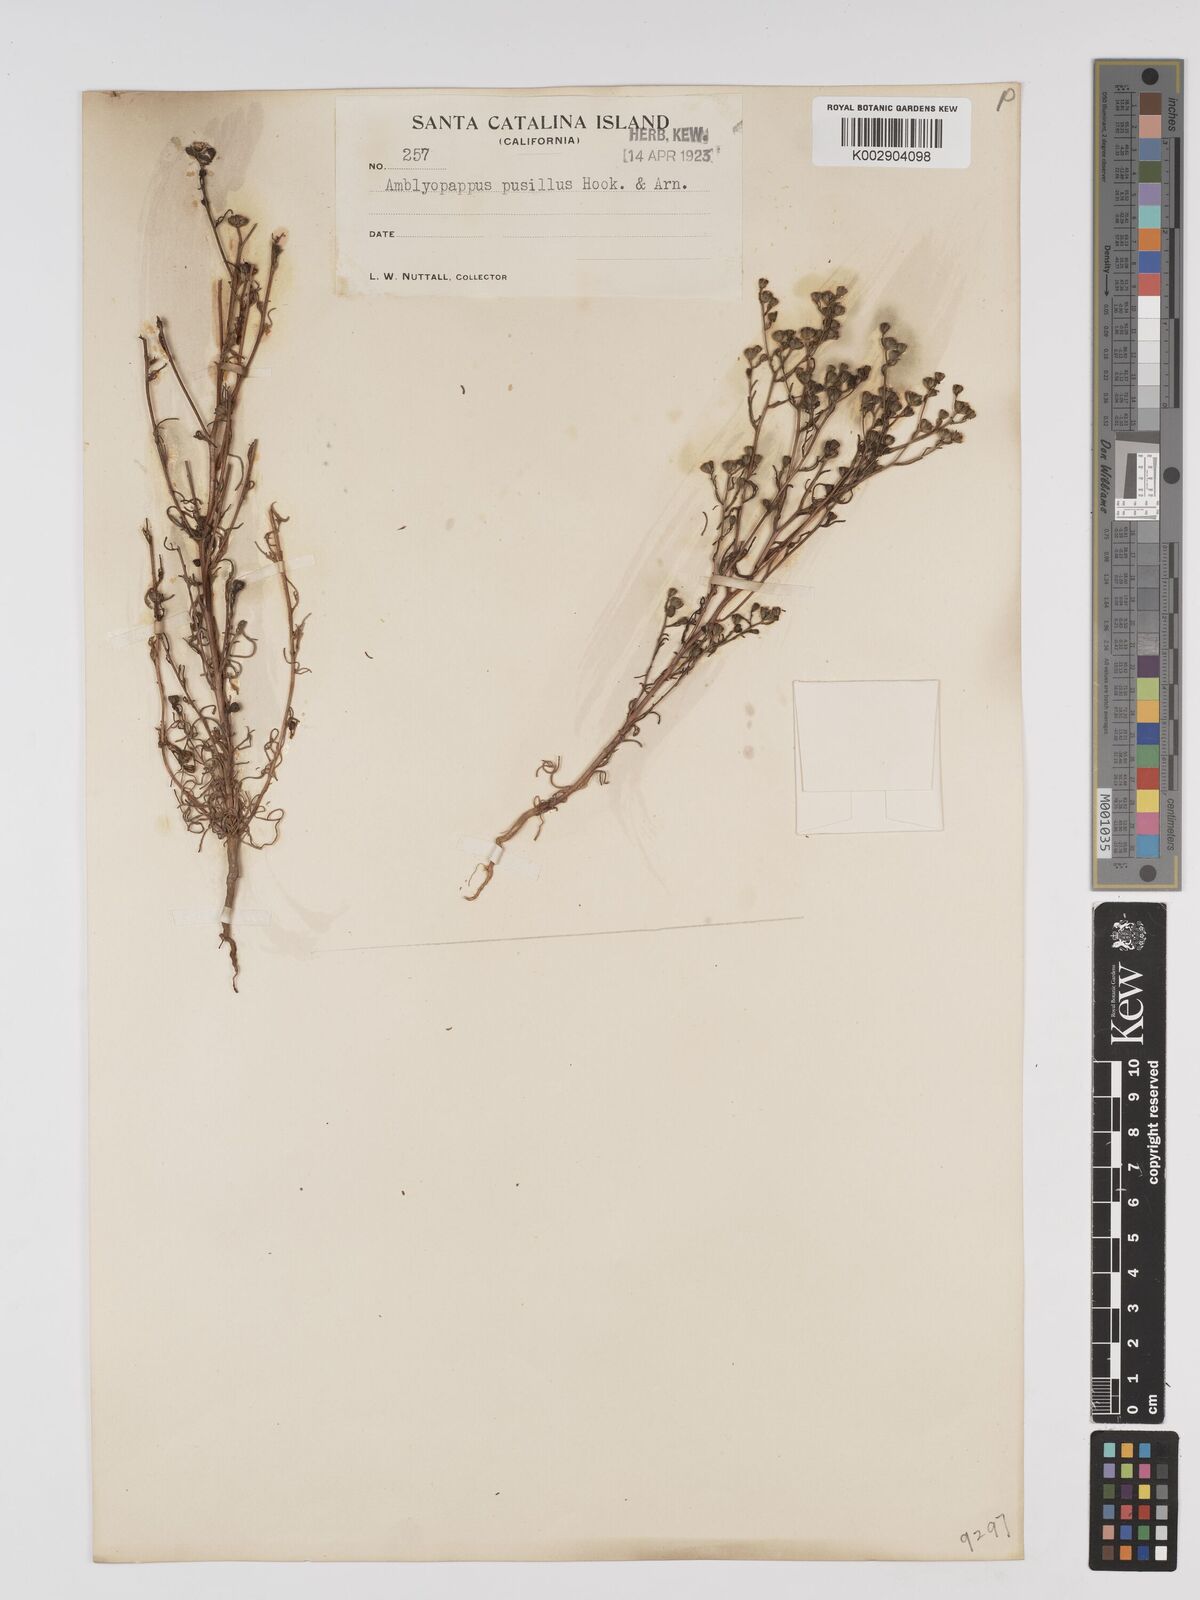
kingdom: Plantae
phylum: Tracheophyta
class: Magnoliopsida
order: Asterales
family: Asteraceae
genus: Amblyopappus
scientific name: Amblyopappus pusillus
